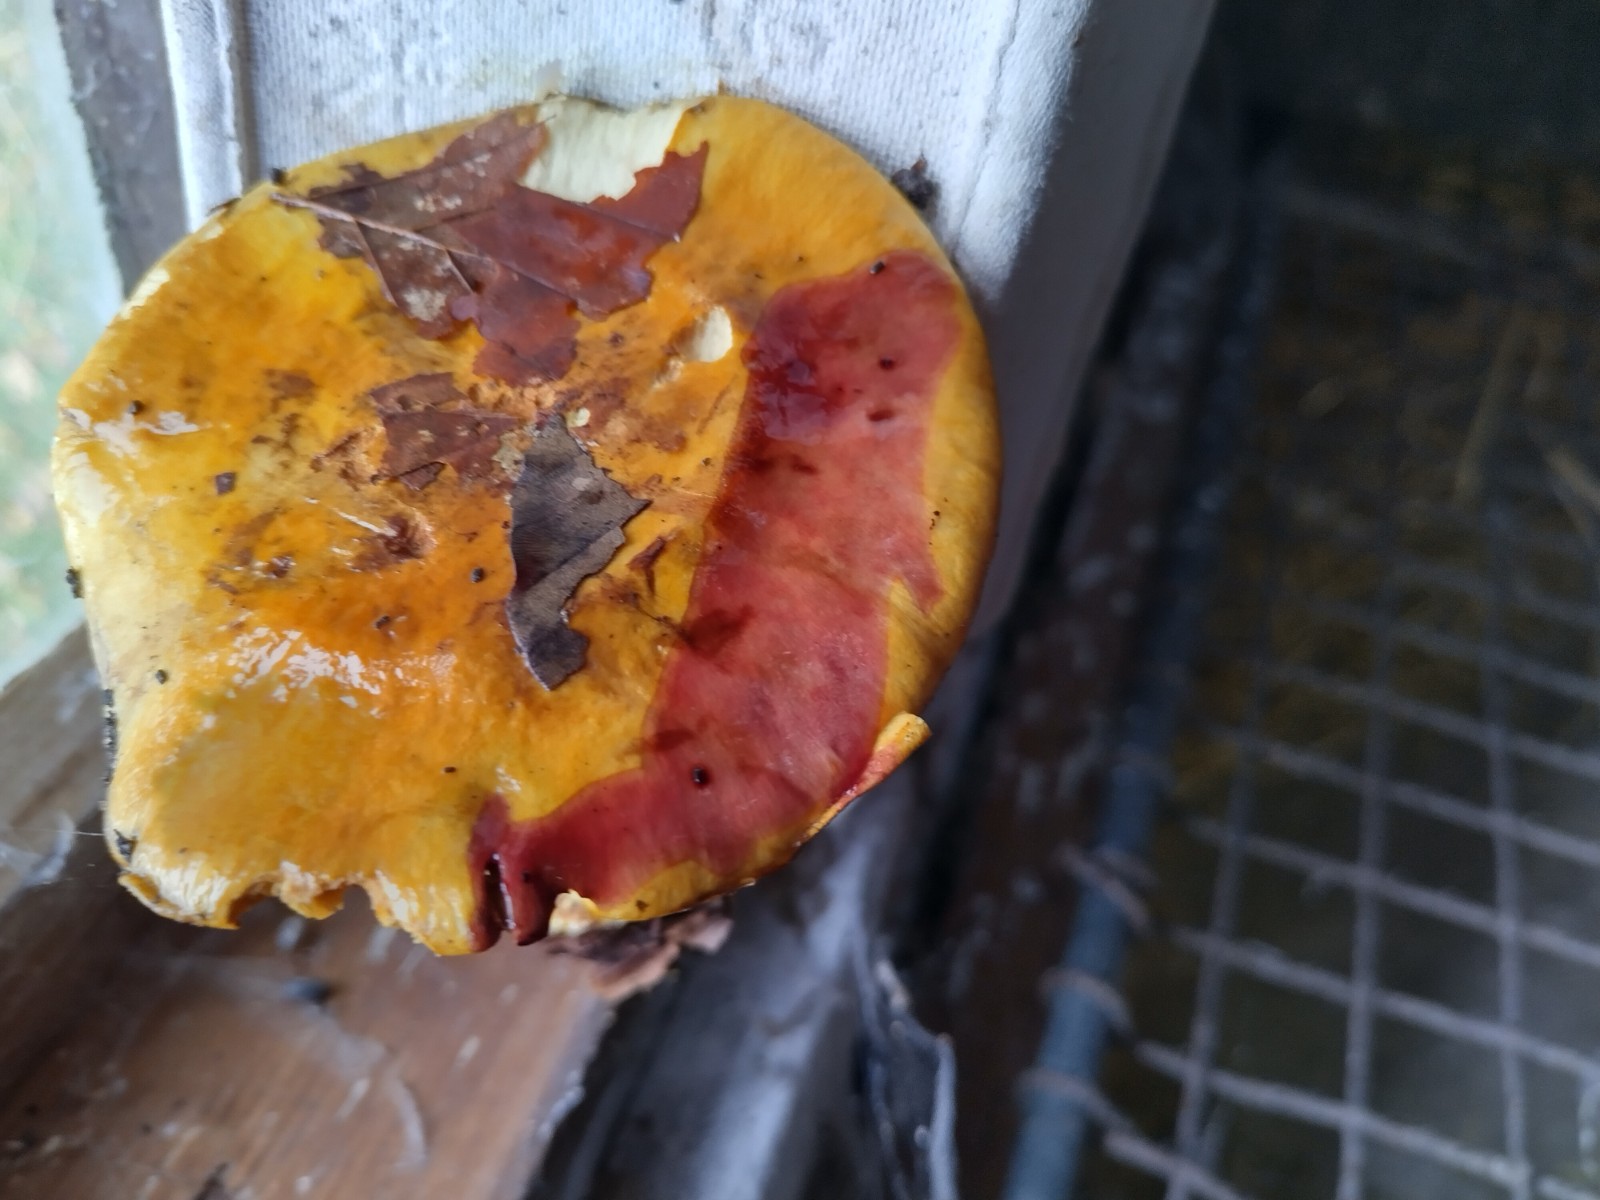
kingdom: Fungi
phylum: Basidiomycota
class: Agaricomycetes
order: Agaricales
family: Cortinariaceae
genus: Calonarius
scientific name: Calonarius alcalinophilus
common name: gyldenbrun slørhat
